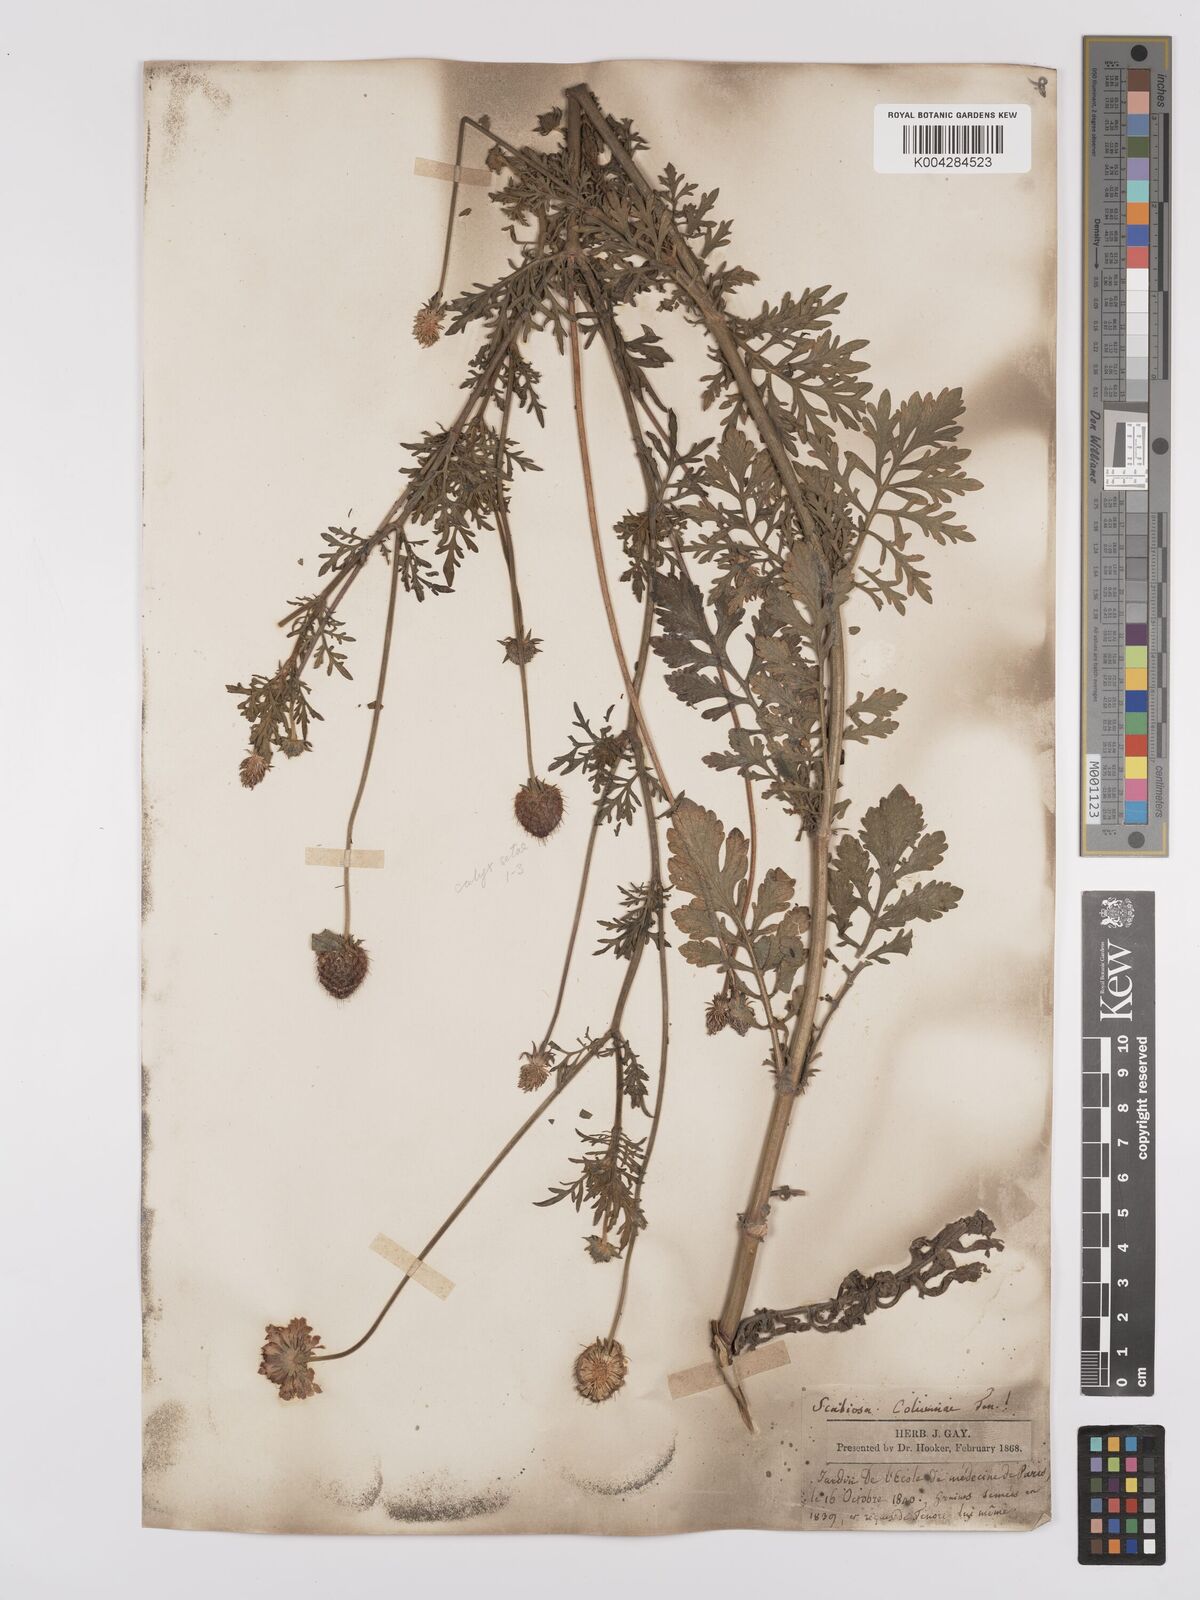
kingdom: Plantae
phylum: Tracheophyta
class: Magnoliopsida
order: Dipsacales
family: Caprifoliaceae
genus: Scabiosa
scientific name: Scabiosa triandra
